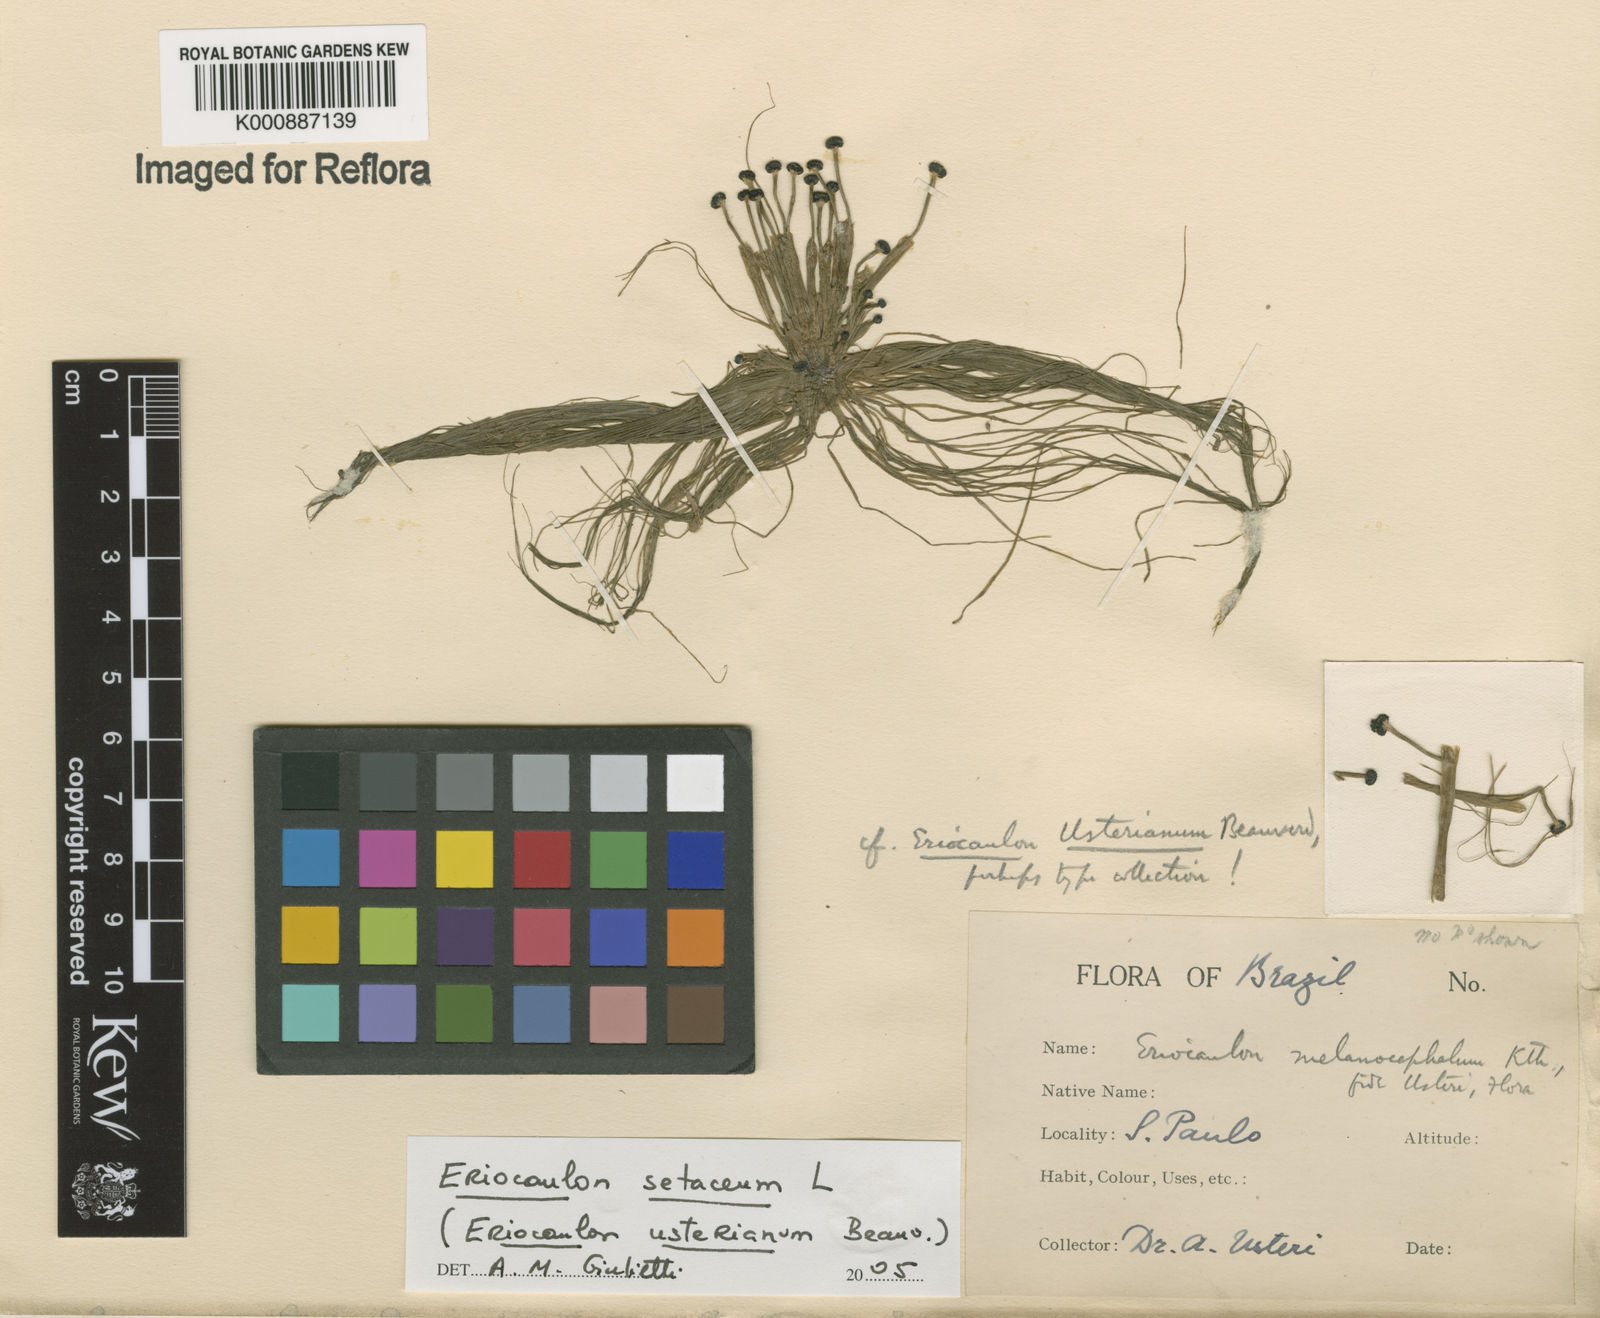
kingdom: Plantae
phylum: Tracheophyta
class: Liliopsida
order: Poales
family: Eriocaulaceae
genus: Eriocaulon
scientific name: Eriocaulon setaceum
